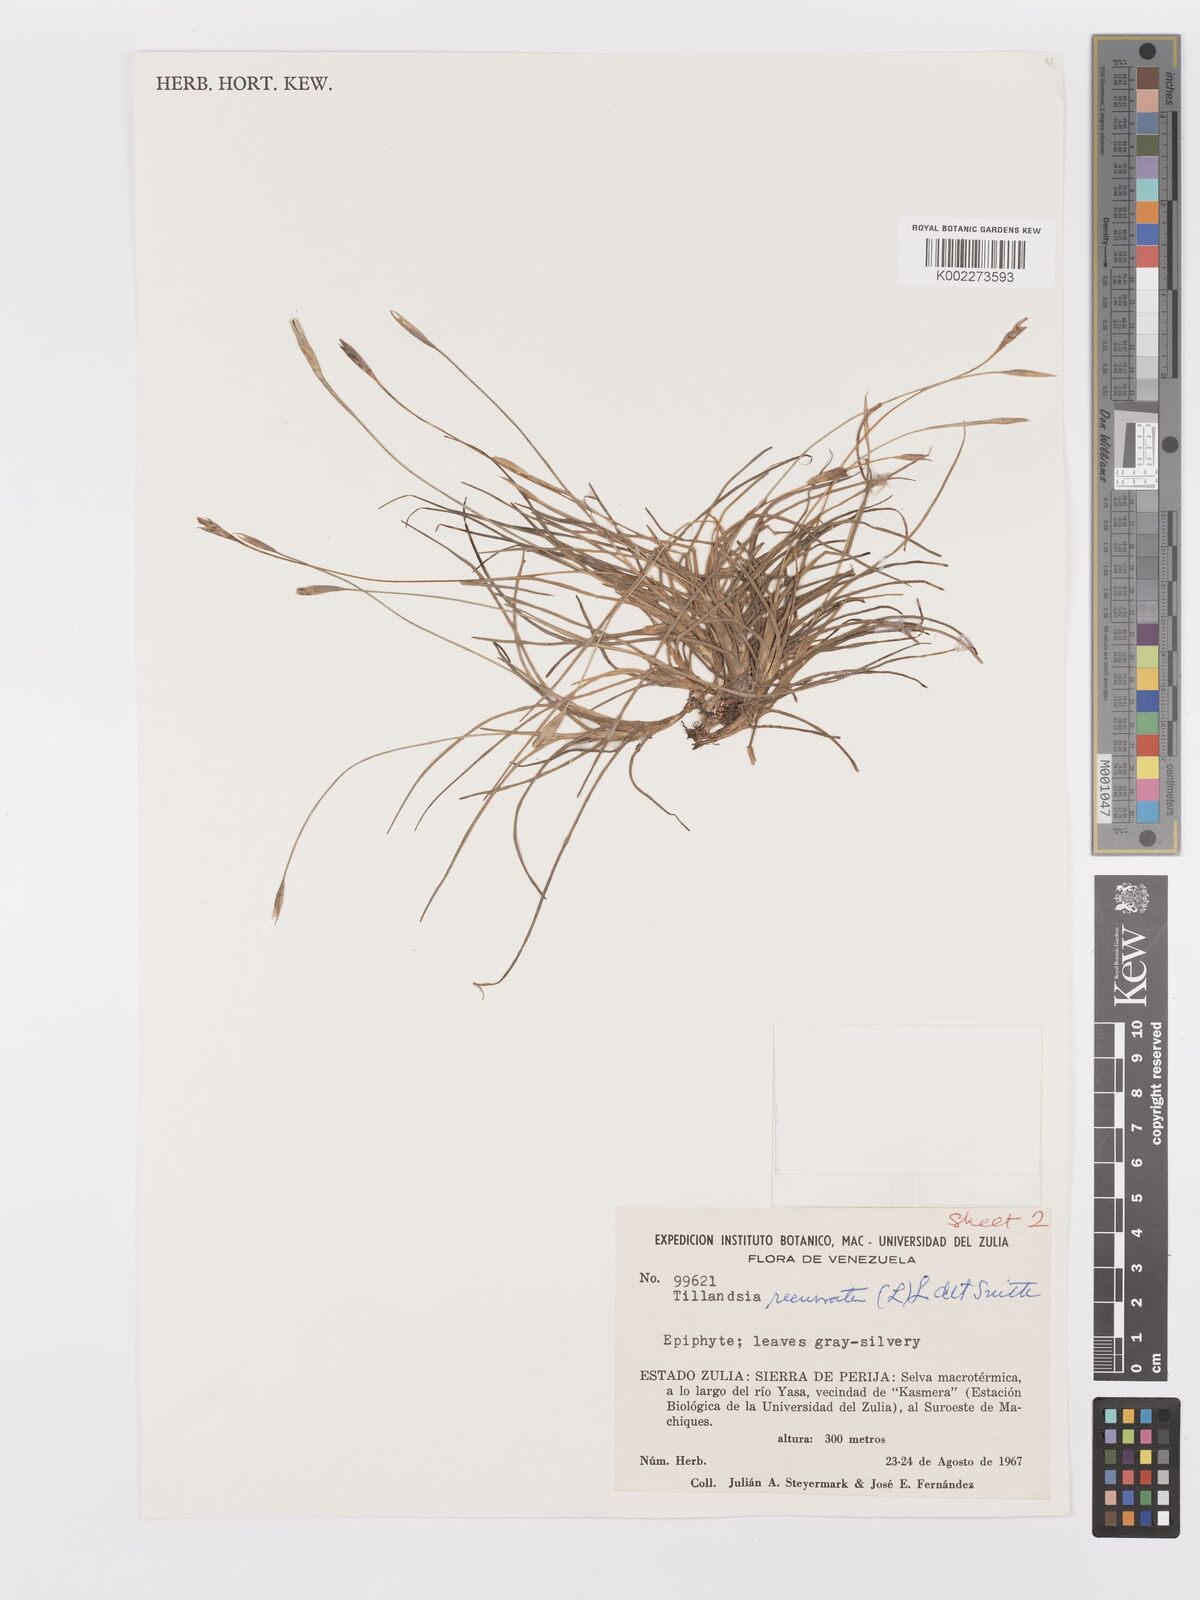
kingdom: Plantae
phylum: Tracheophyta
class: Liliopsida
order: Poales
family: Bromeliaceae
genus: Tillandsia
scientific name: Tillandsia recurvata
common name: Small ballmoss
